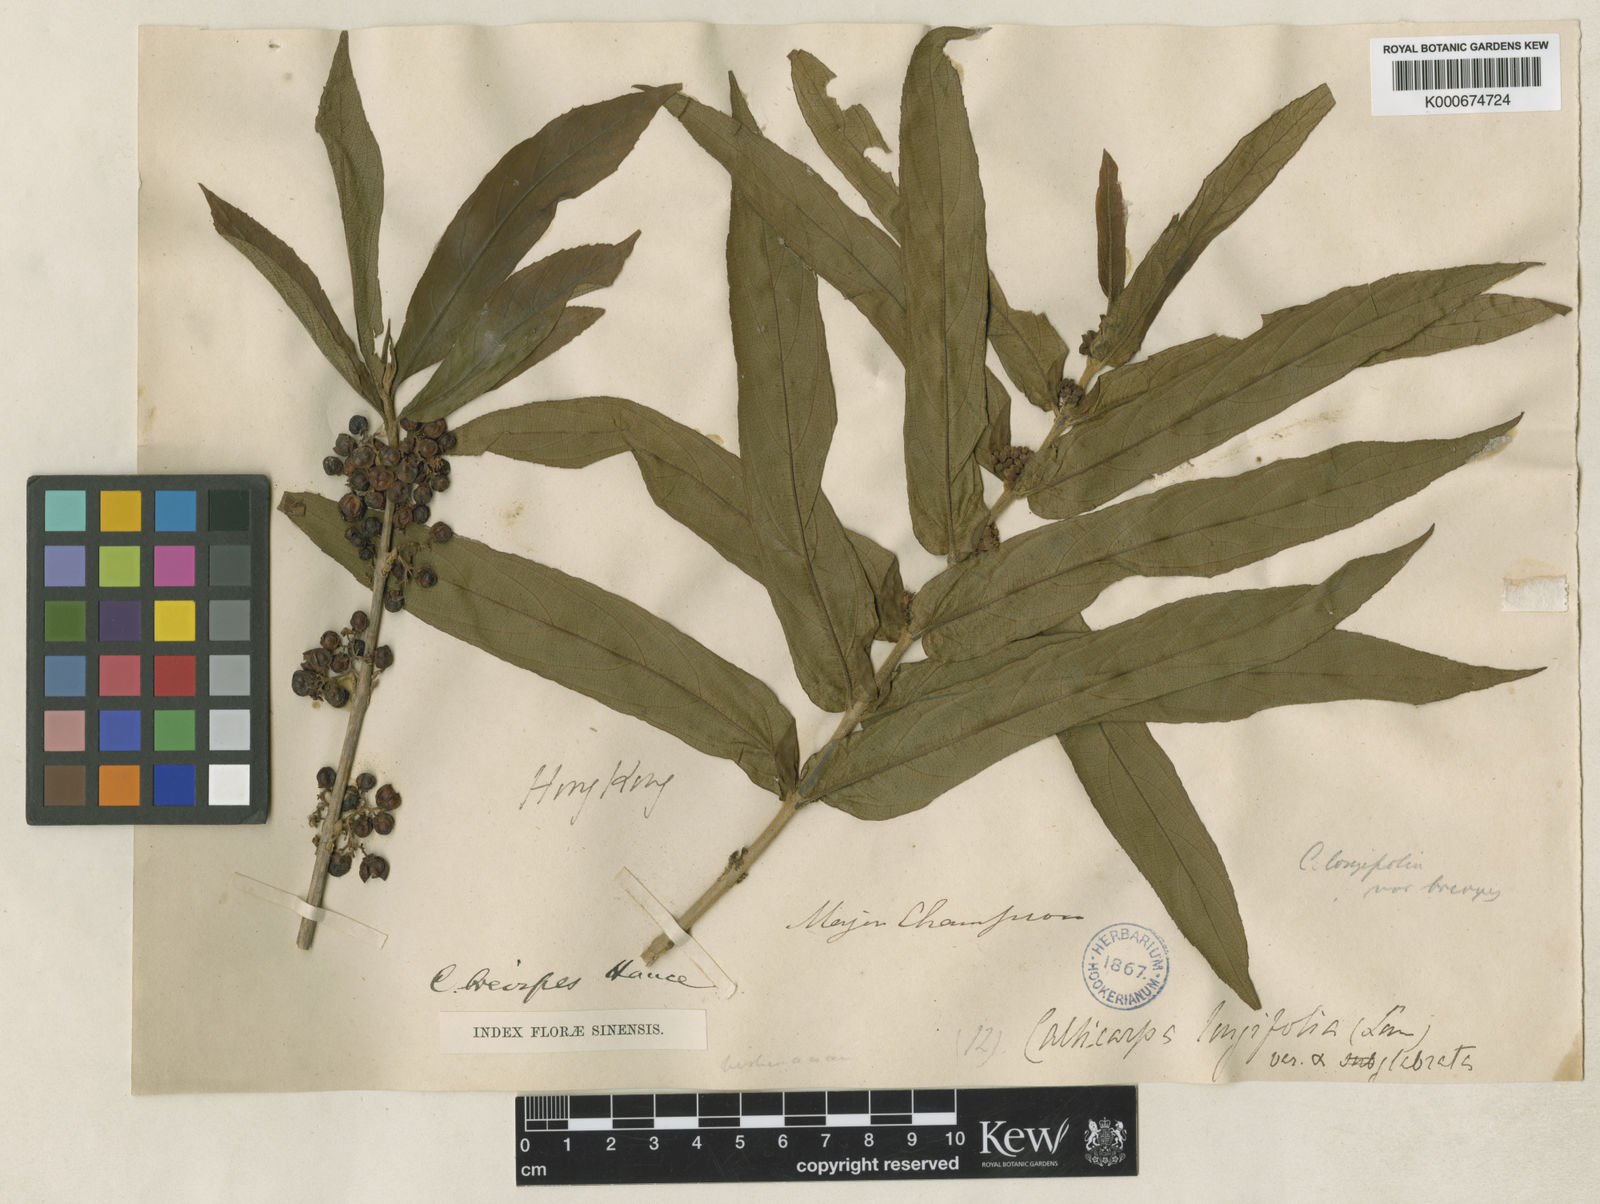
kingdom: Plantae
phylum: Tracheophyta
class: Magnoliopsida
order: Lamiales
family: Lamiaceae
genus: Callicarpa
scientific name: Callicarpa brevipes
